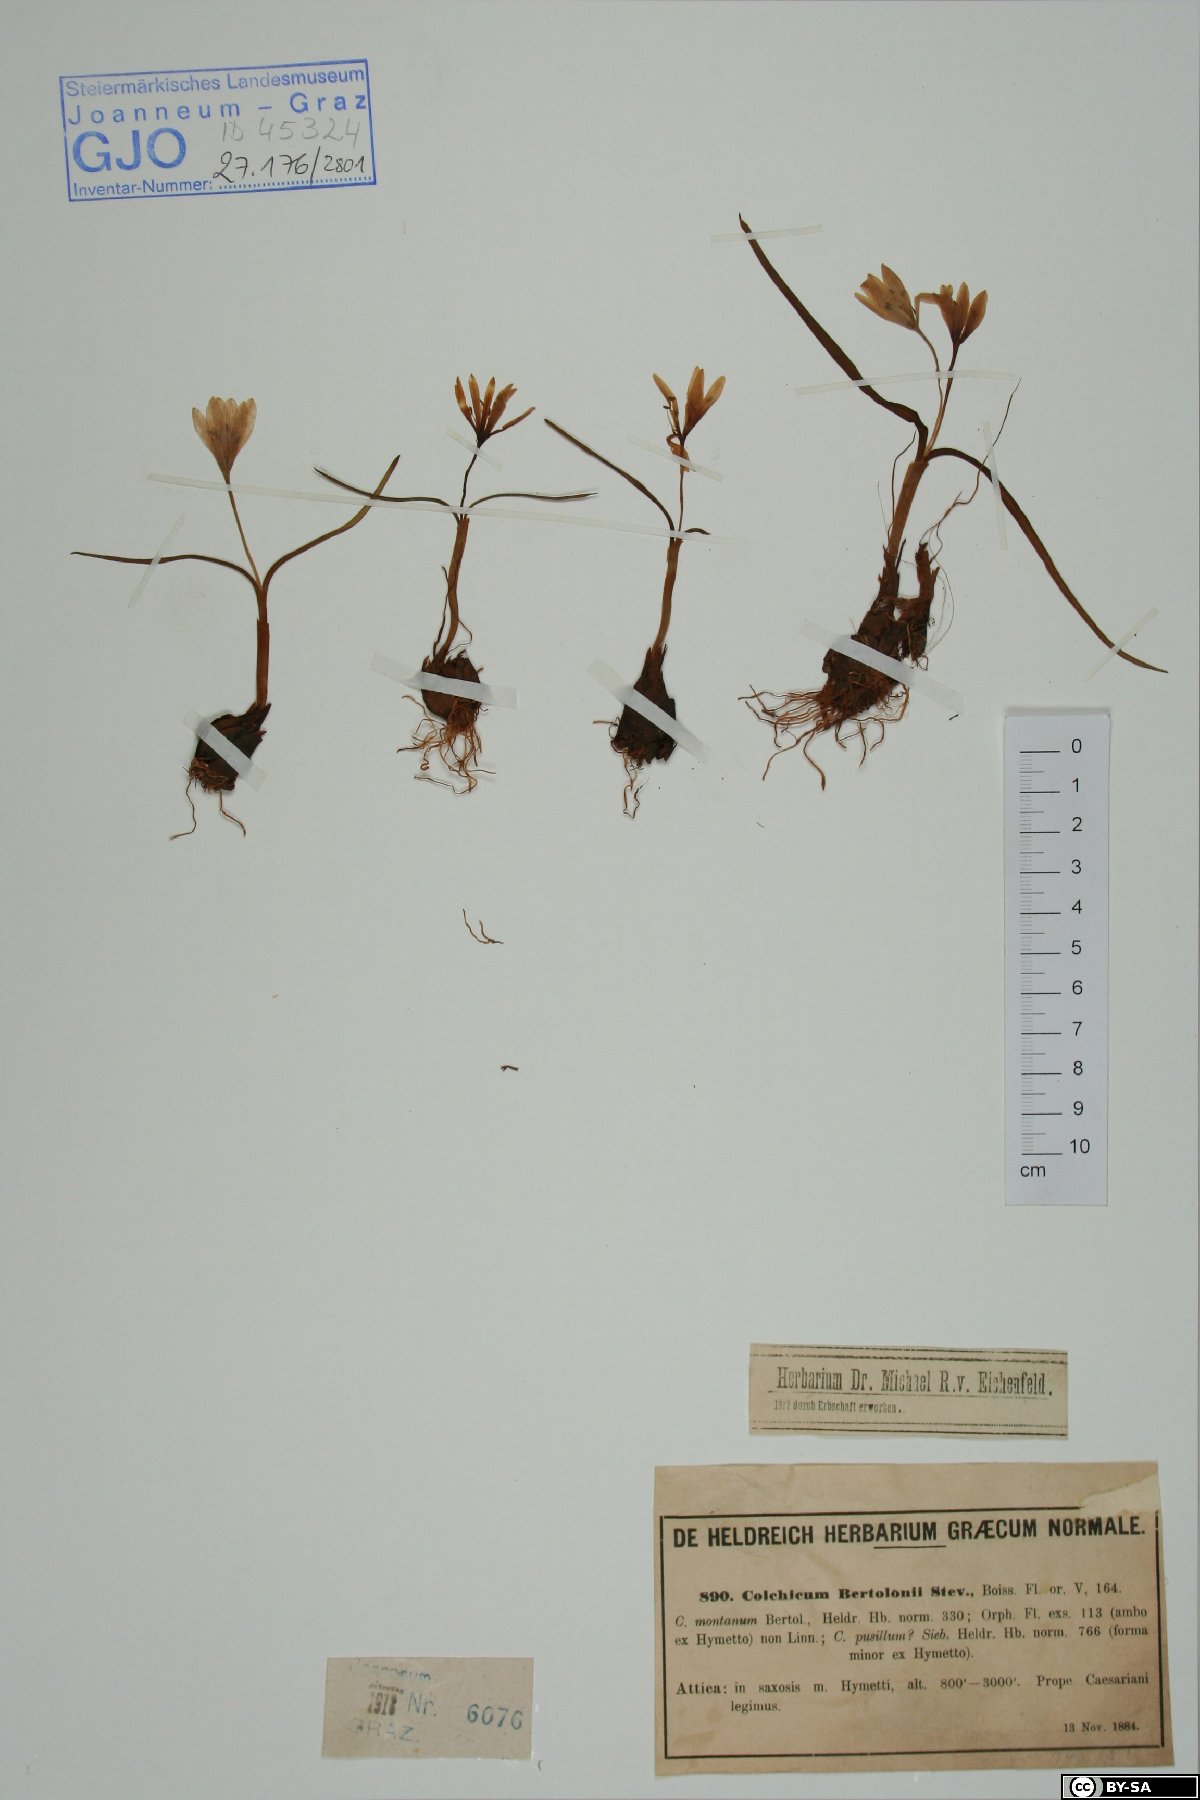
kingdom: Plantae
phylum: Tracheophyta
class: Liliopsida
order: Liliales
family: Colchicaceae
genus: Colchicum
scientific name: Colchicum cupanii
